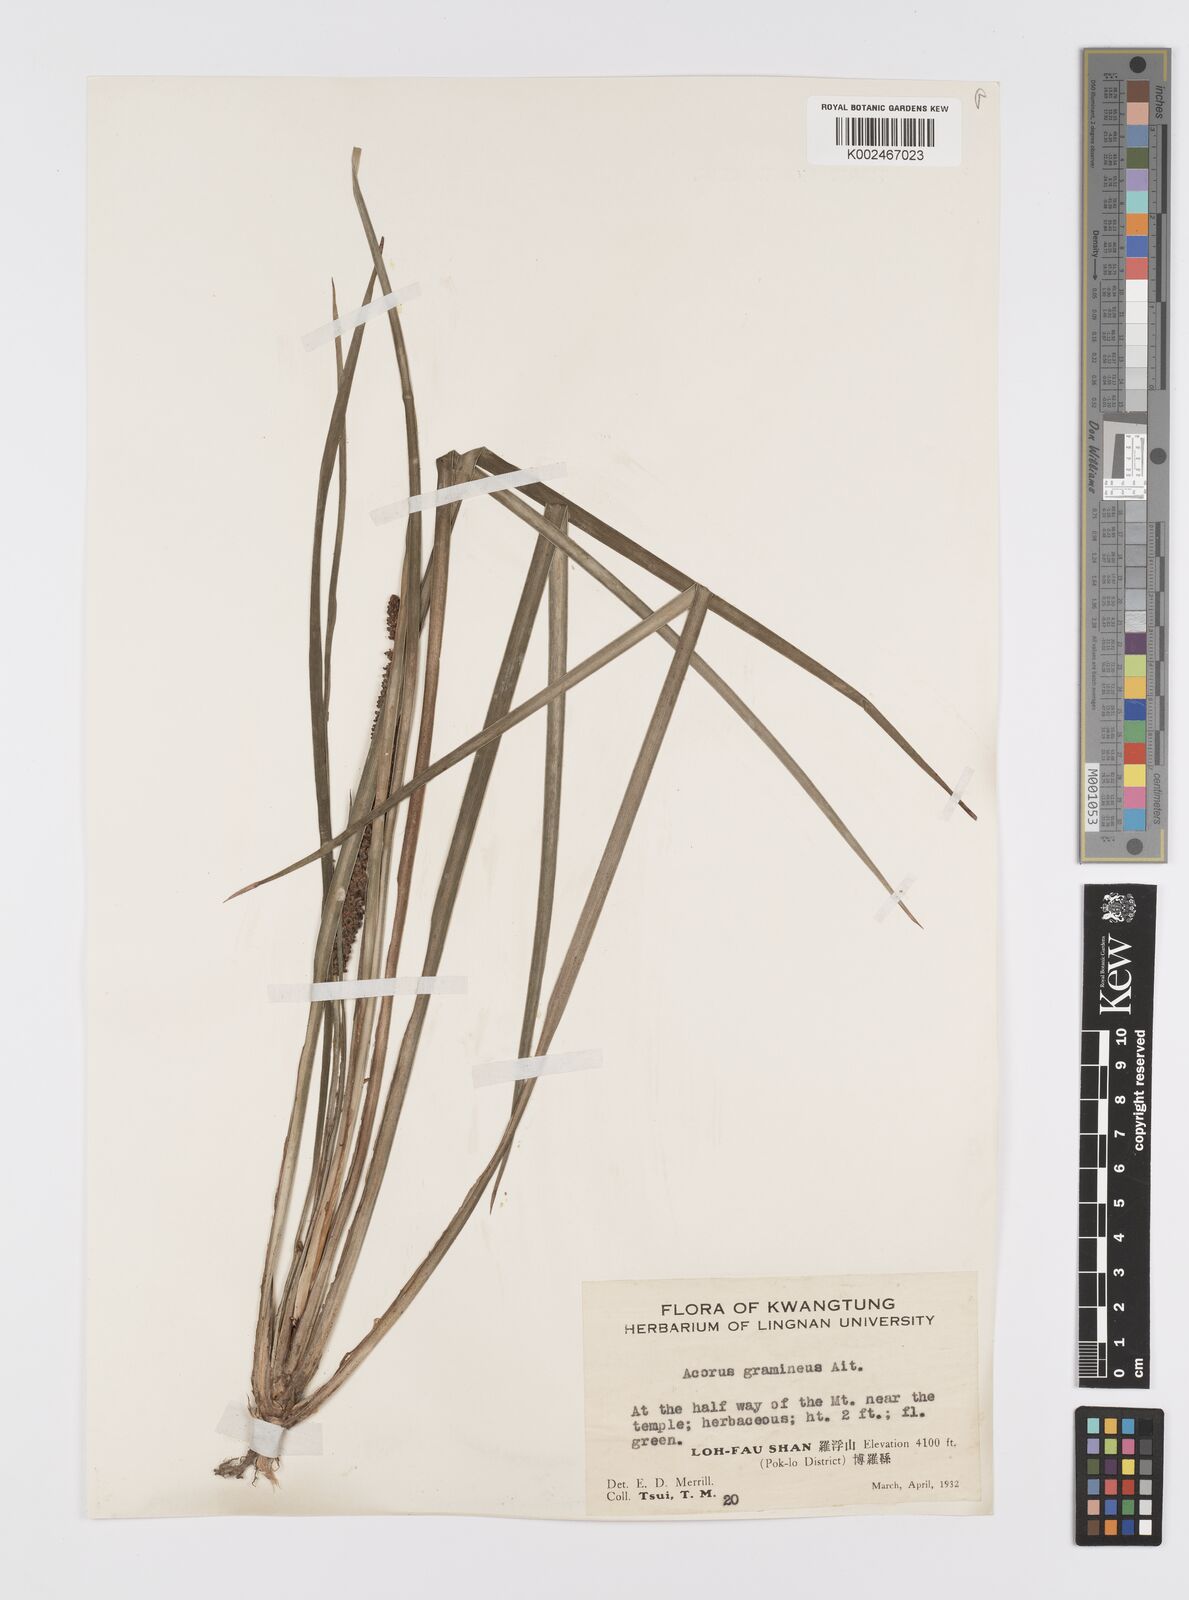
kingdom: Plantae
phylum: Tracheophyta
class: Liliopsida
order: Acorales
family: Acoraceae
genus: Acorus
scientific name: Acorus gramineus
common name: Slender sweet-flag
